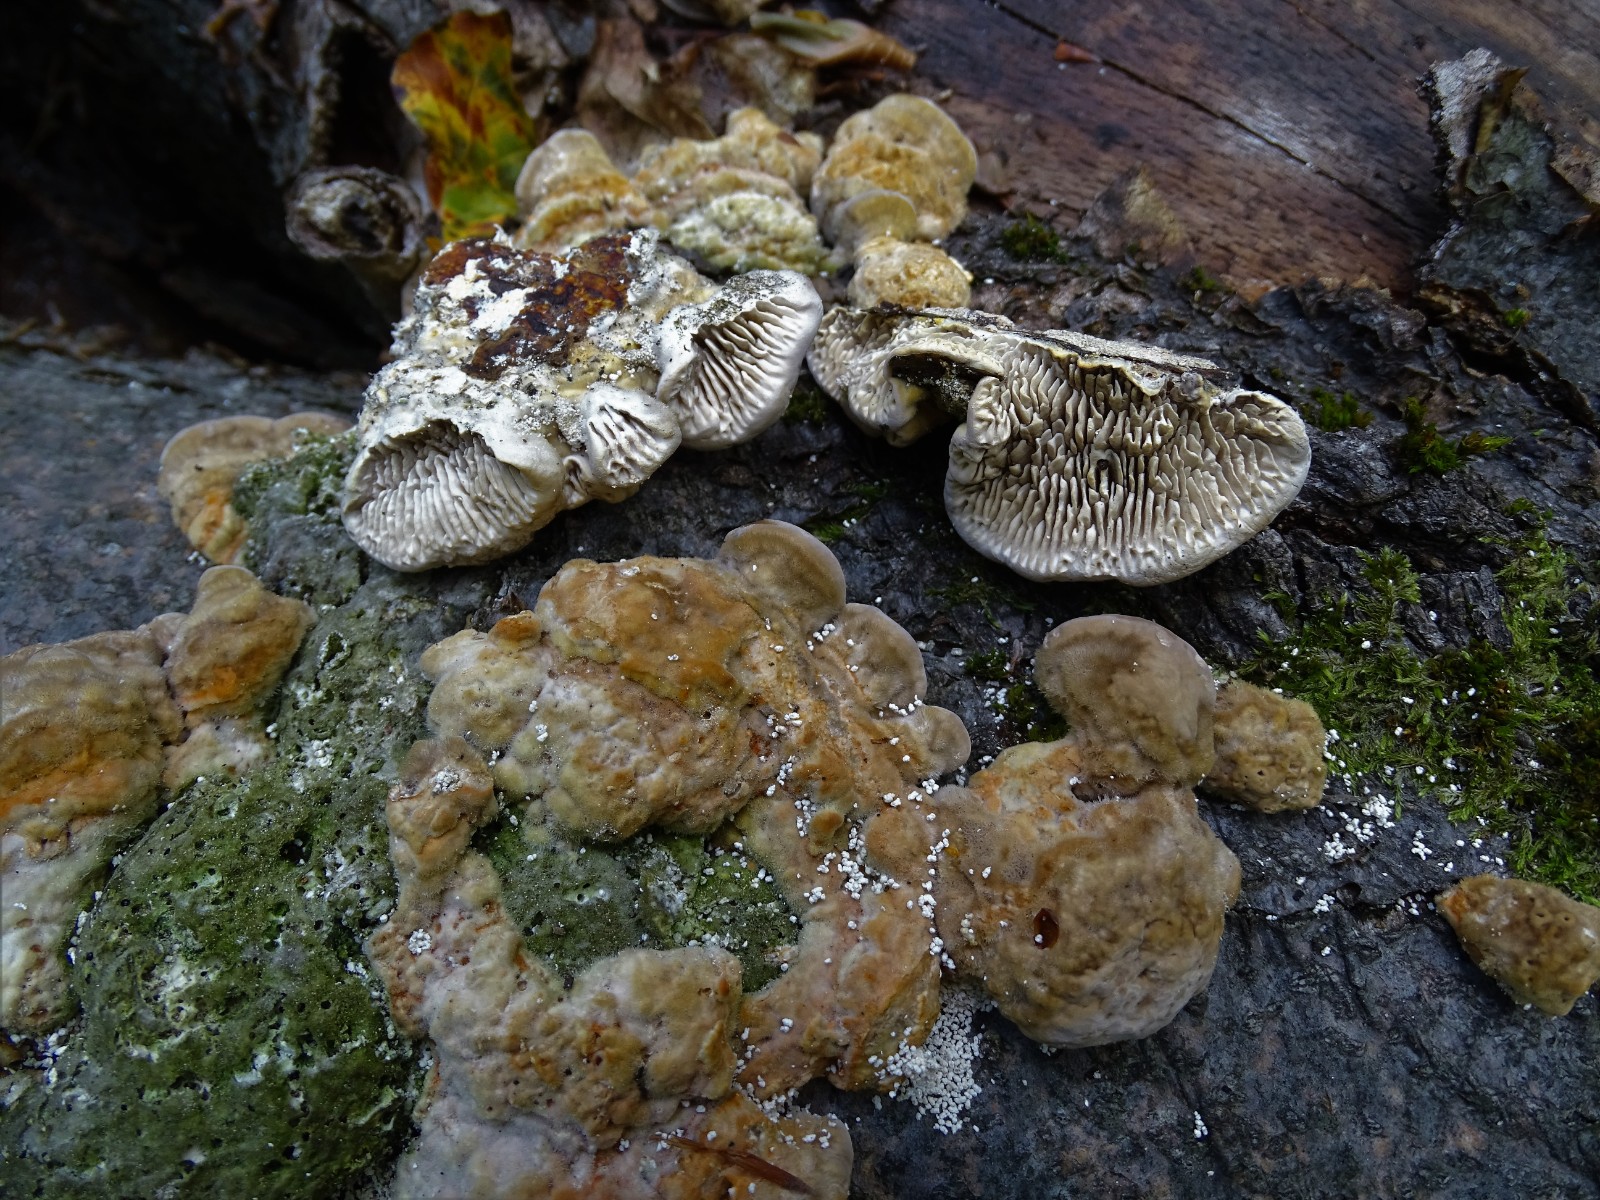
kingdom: Fungi
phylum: Basidiomycota
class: Agaricomycetes
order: Polyporales
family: Polyporaceae
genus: Lenzites
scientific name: Lenzites betulinus
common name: birke-læderporesvamp
